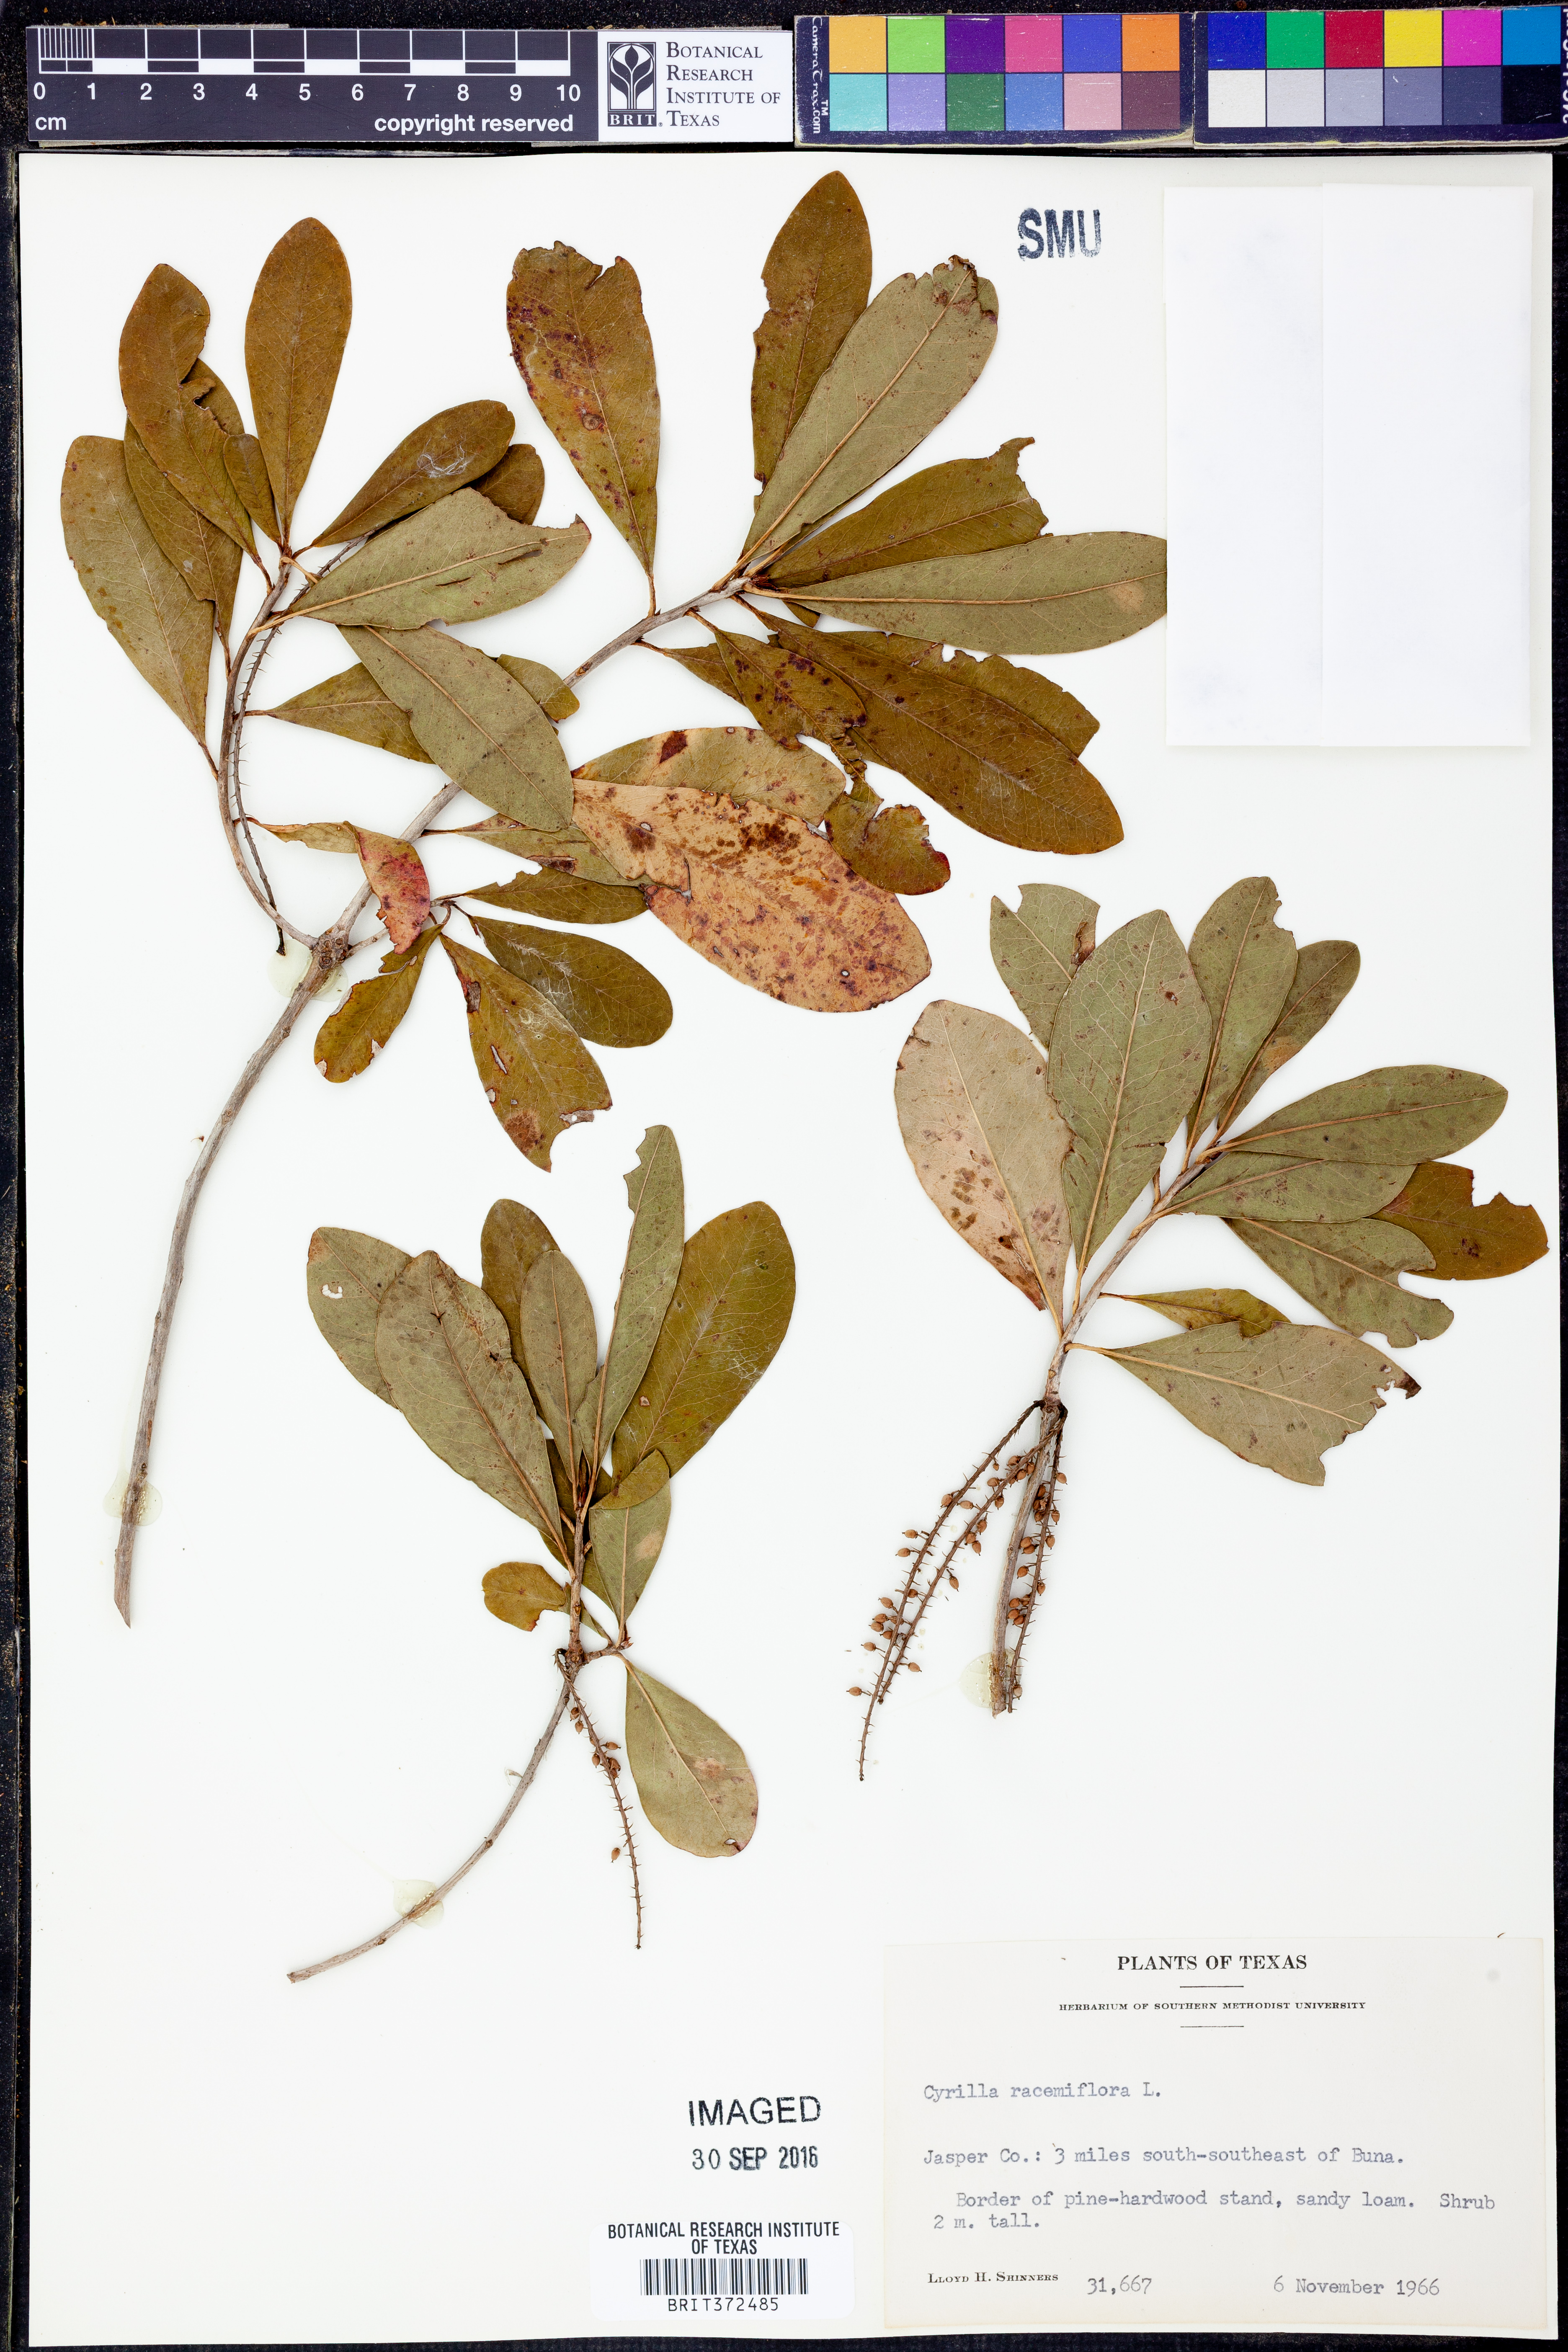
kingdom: Plantae
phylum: Tracheophyta
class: Magnoliopsida
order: Ericales
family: Cyrillaceae
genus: Cyrilla
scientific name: Cyrilla racemiflora
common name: Black titi
